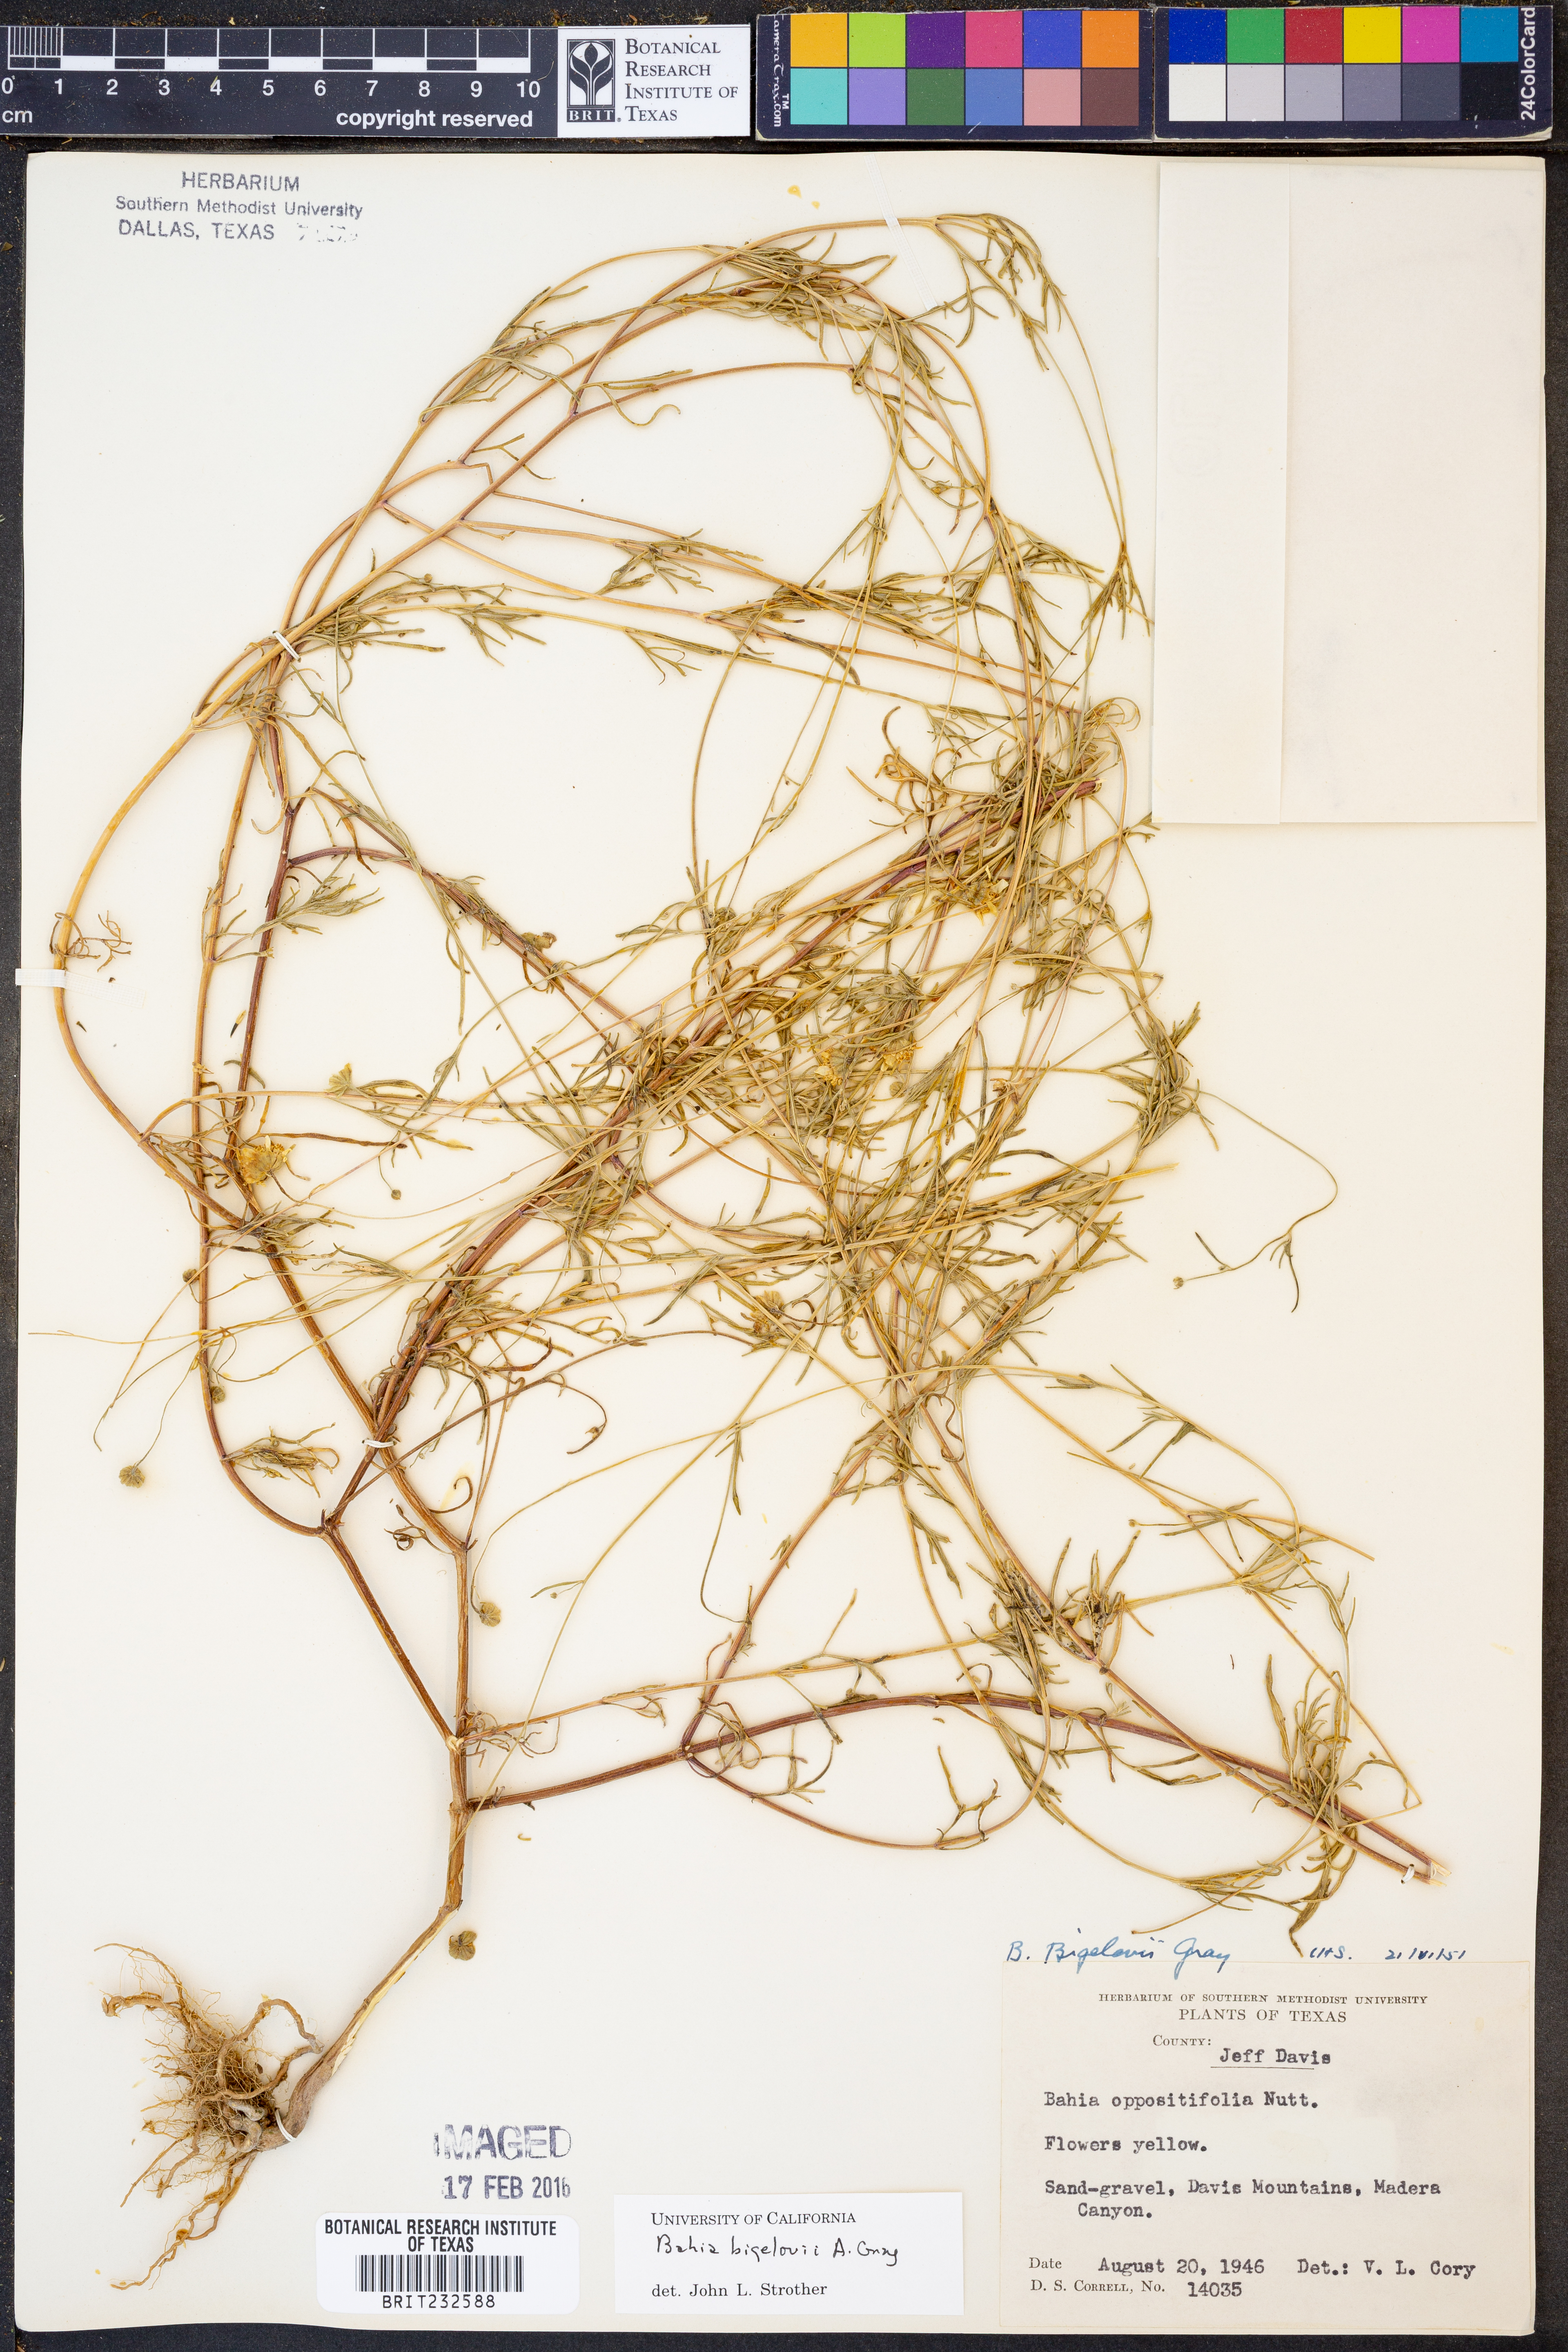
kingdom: Plantae
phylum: Tracheophyta
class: Magnoliopsida
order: Asterales
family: Asteraceae
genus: Picradeniopsis
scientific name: Picradeniopsis bigelovii
